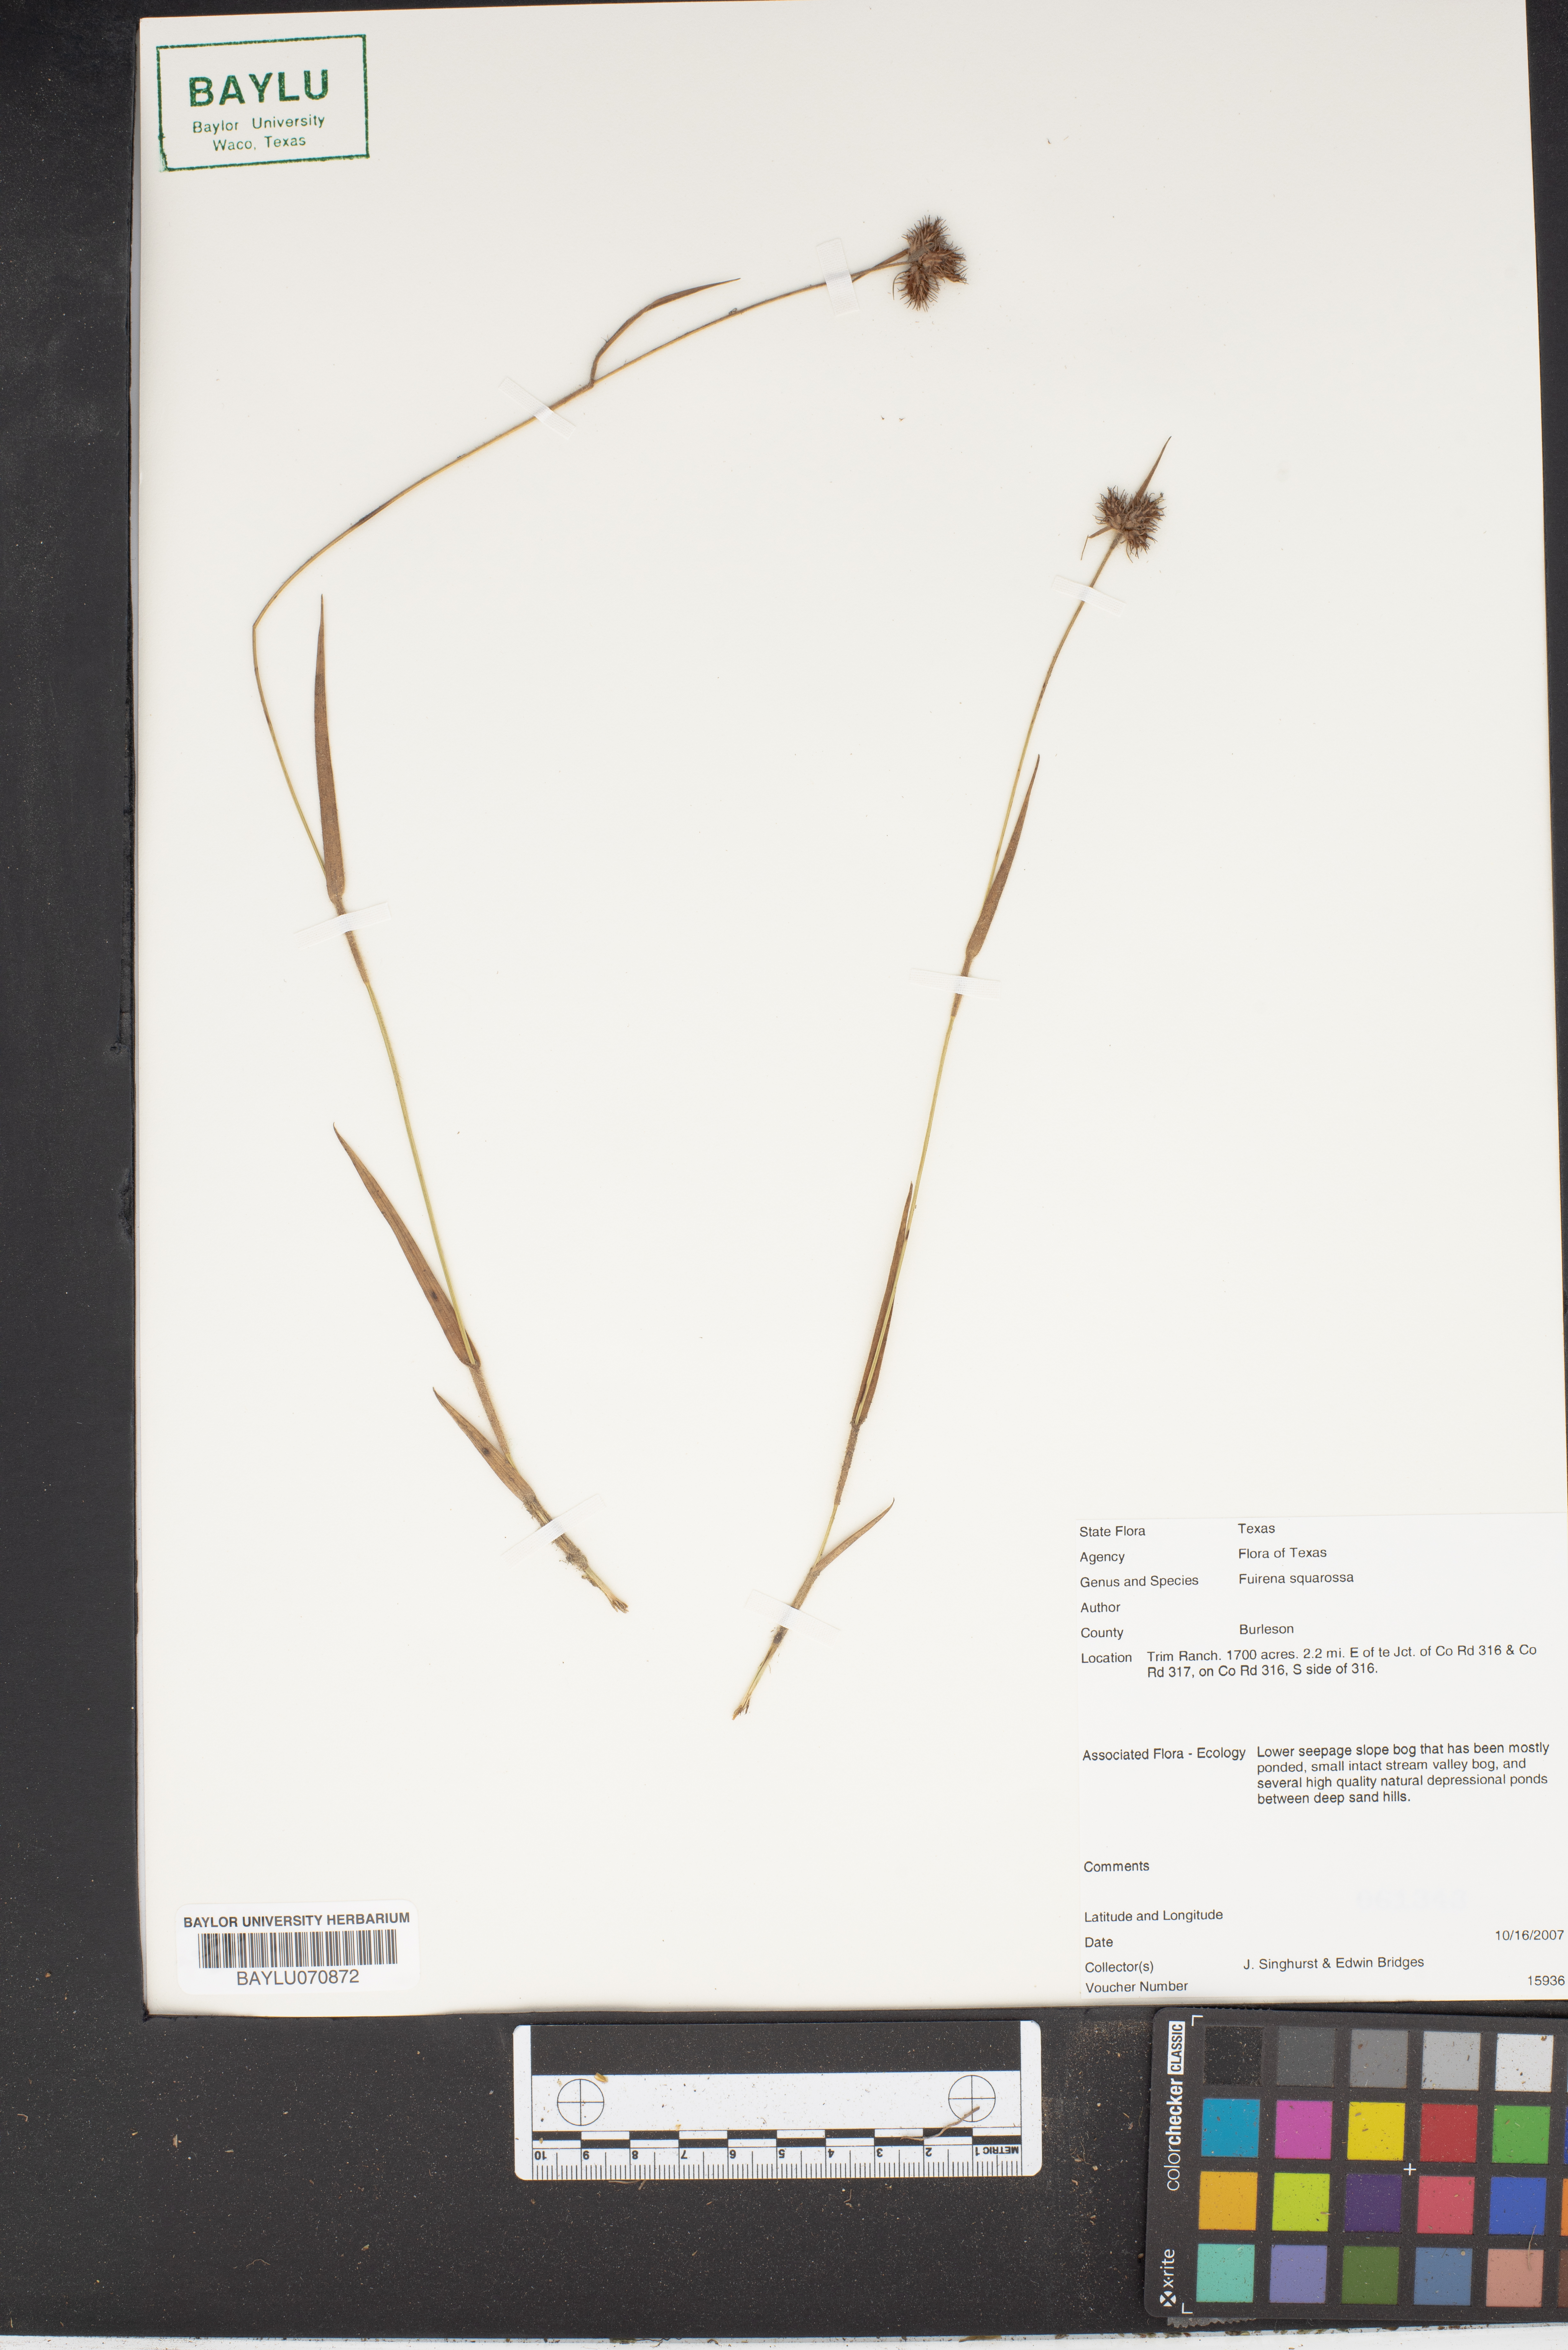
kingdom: Plantae
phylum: Tracheophyta
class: Liliopsida
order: Poales
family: Cyperaceae
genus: Fuirena
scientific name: Fuirena squarrosa
